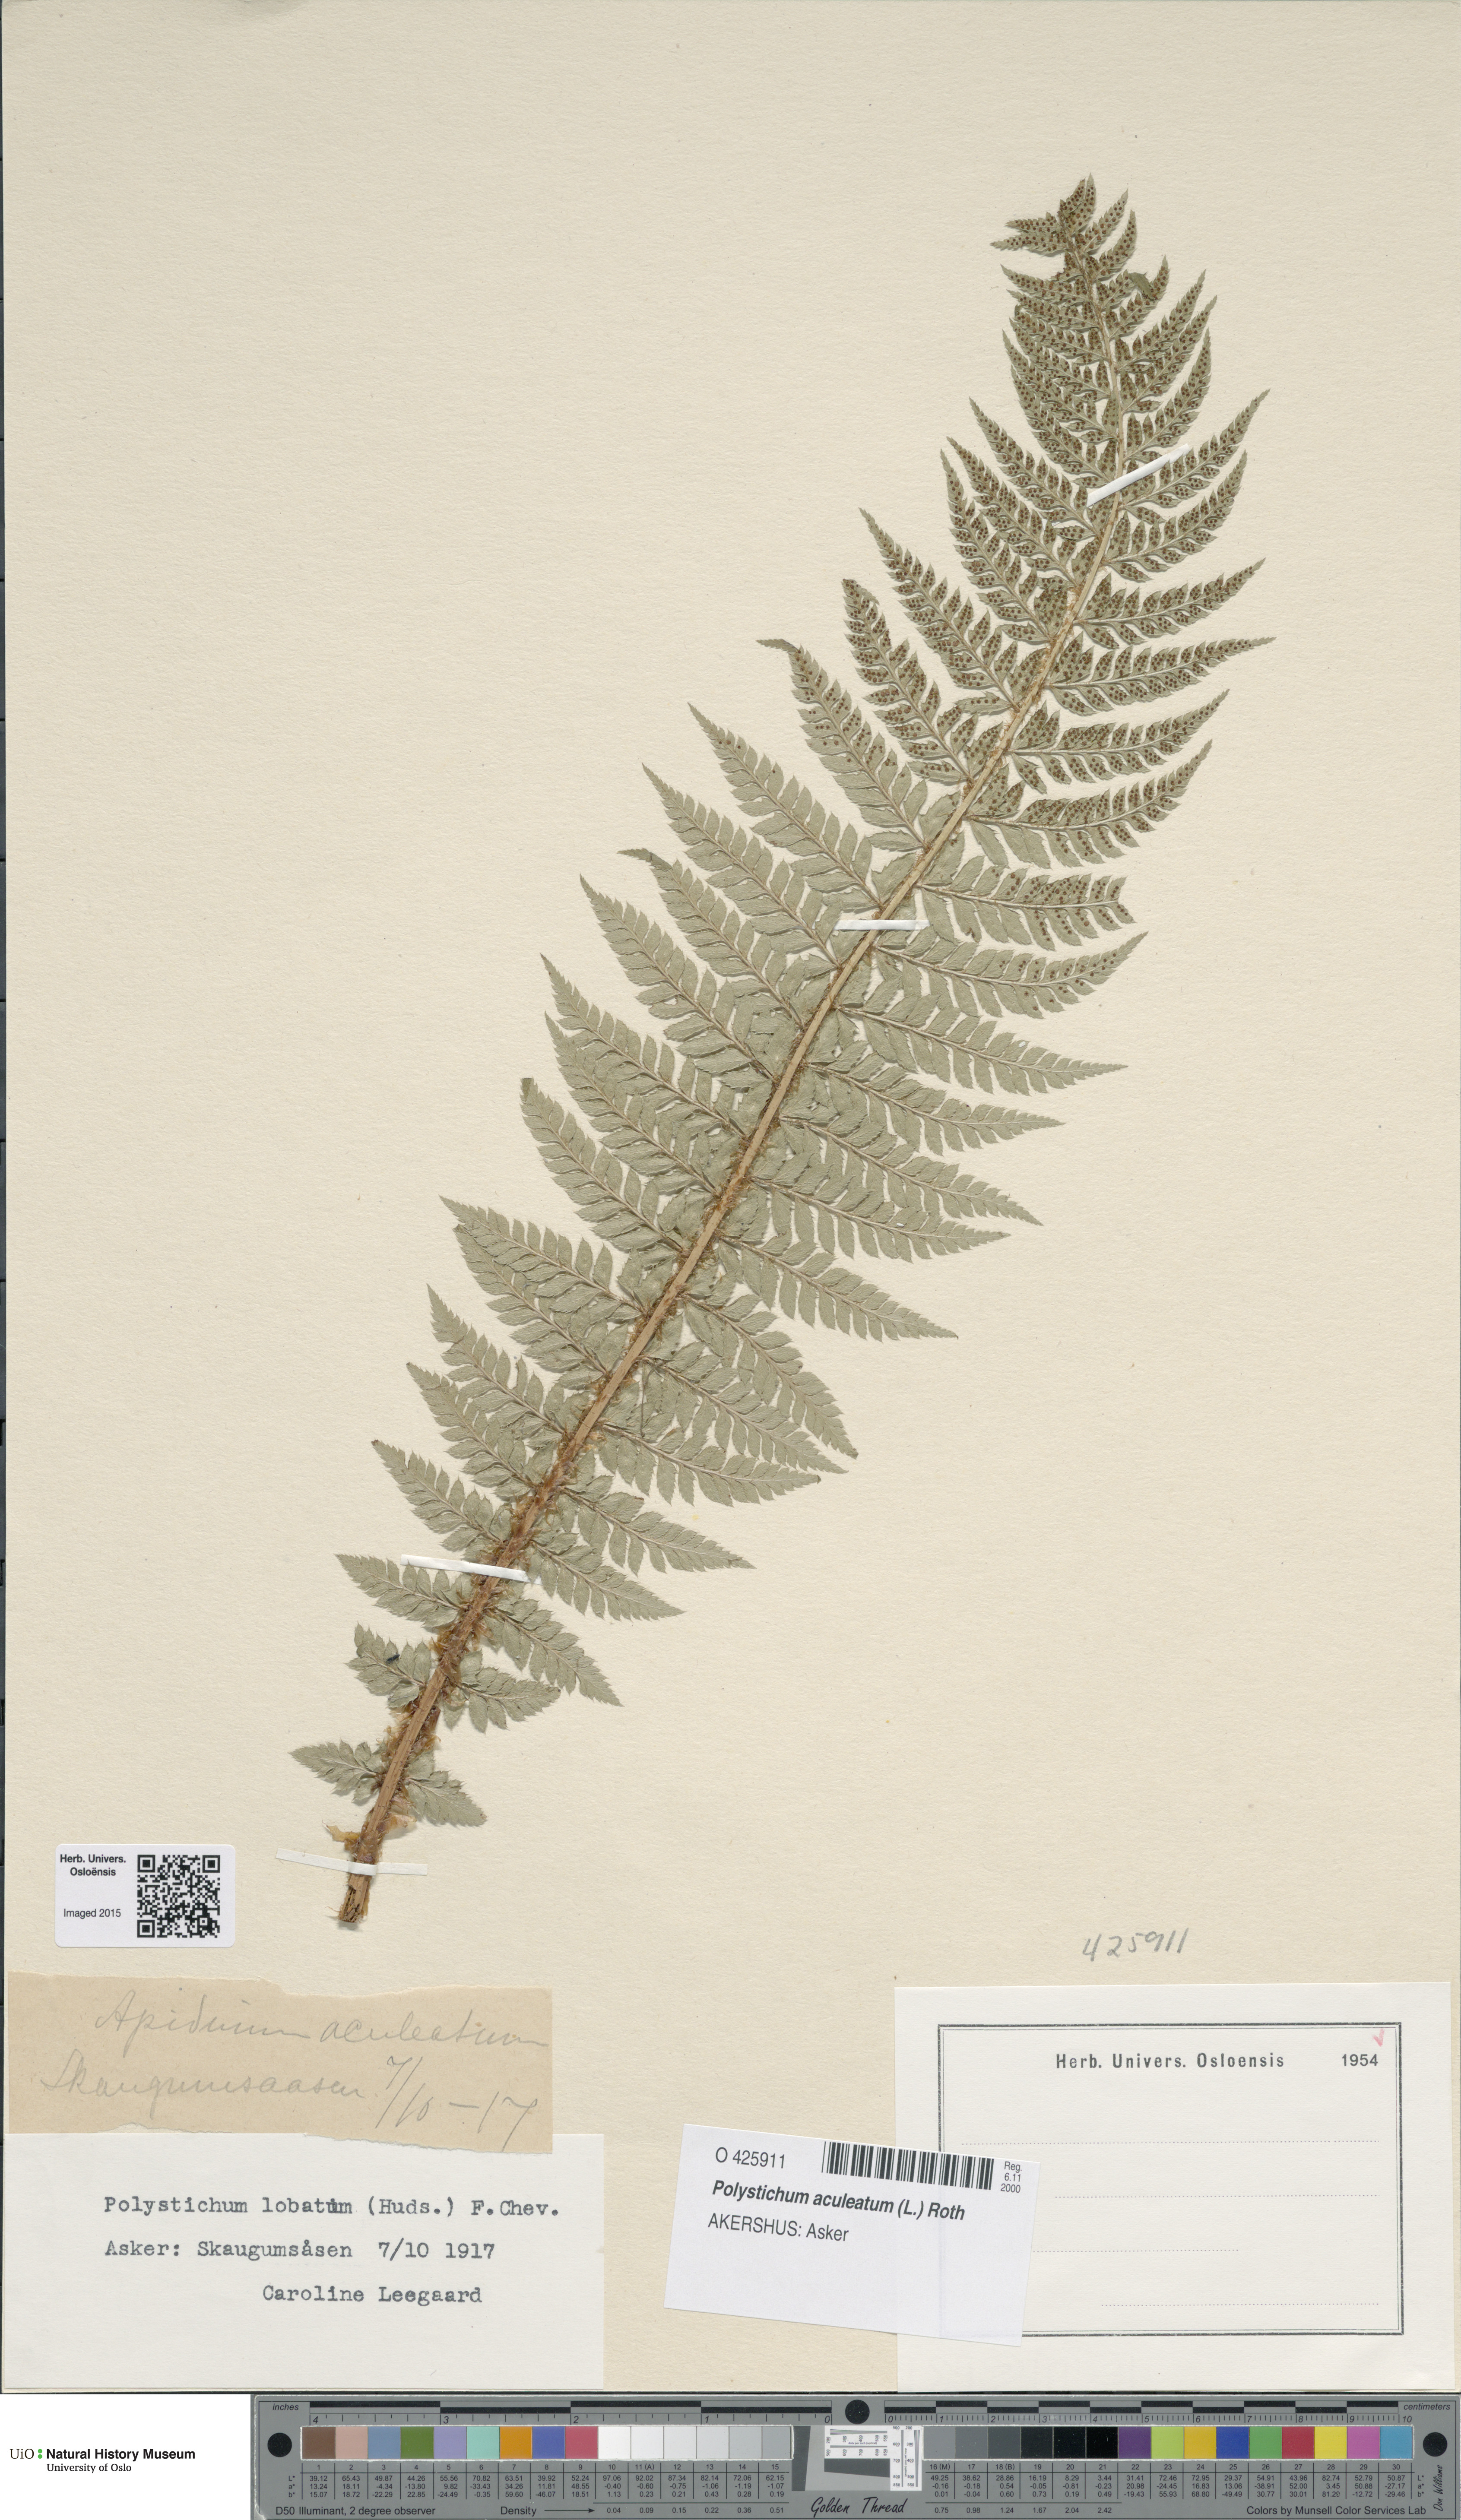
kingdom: Plantae
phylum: Tracheophyta
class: Polypodiopsida
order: Polypodiales
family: Dryopteridaceae
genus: Polystichum
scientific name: Polystichum aculeatum
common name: Hard shield-fern
